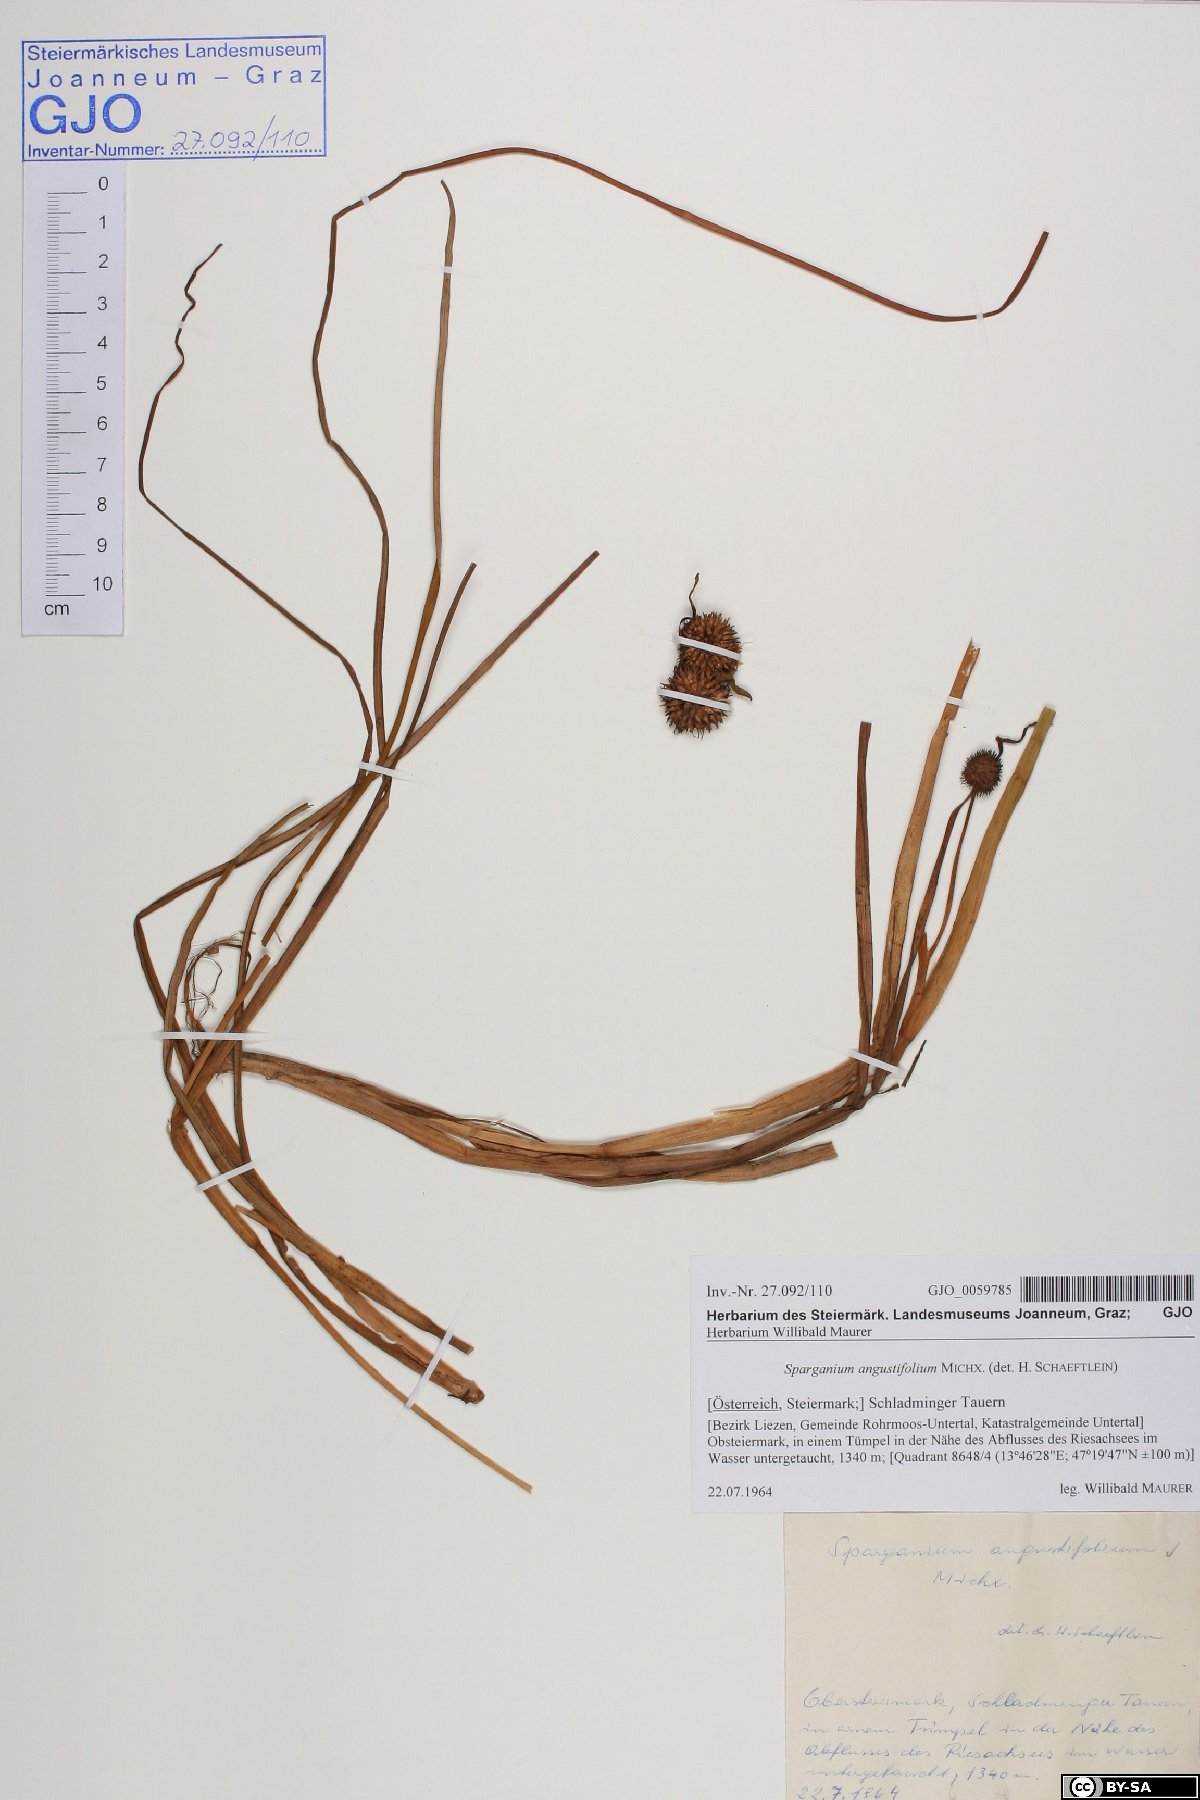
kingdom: Plantae
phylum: Tracheophyta
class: Liliopsida
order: Poales
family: Typhaceae
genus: Sparganium
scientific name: Sparganium angustifolium
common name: Floating bur-reed
